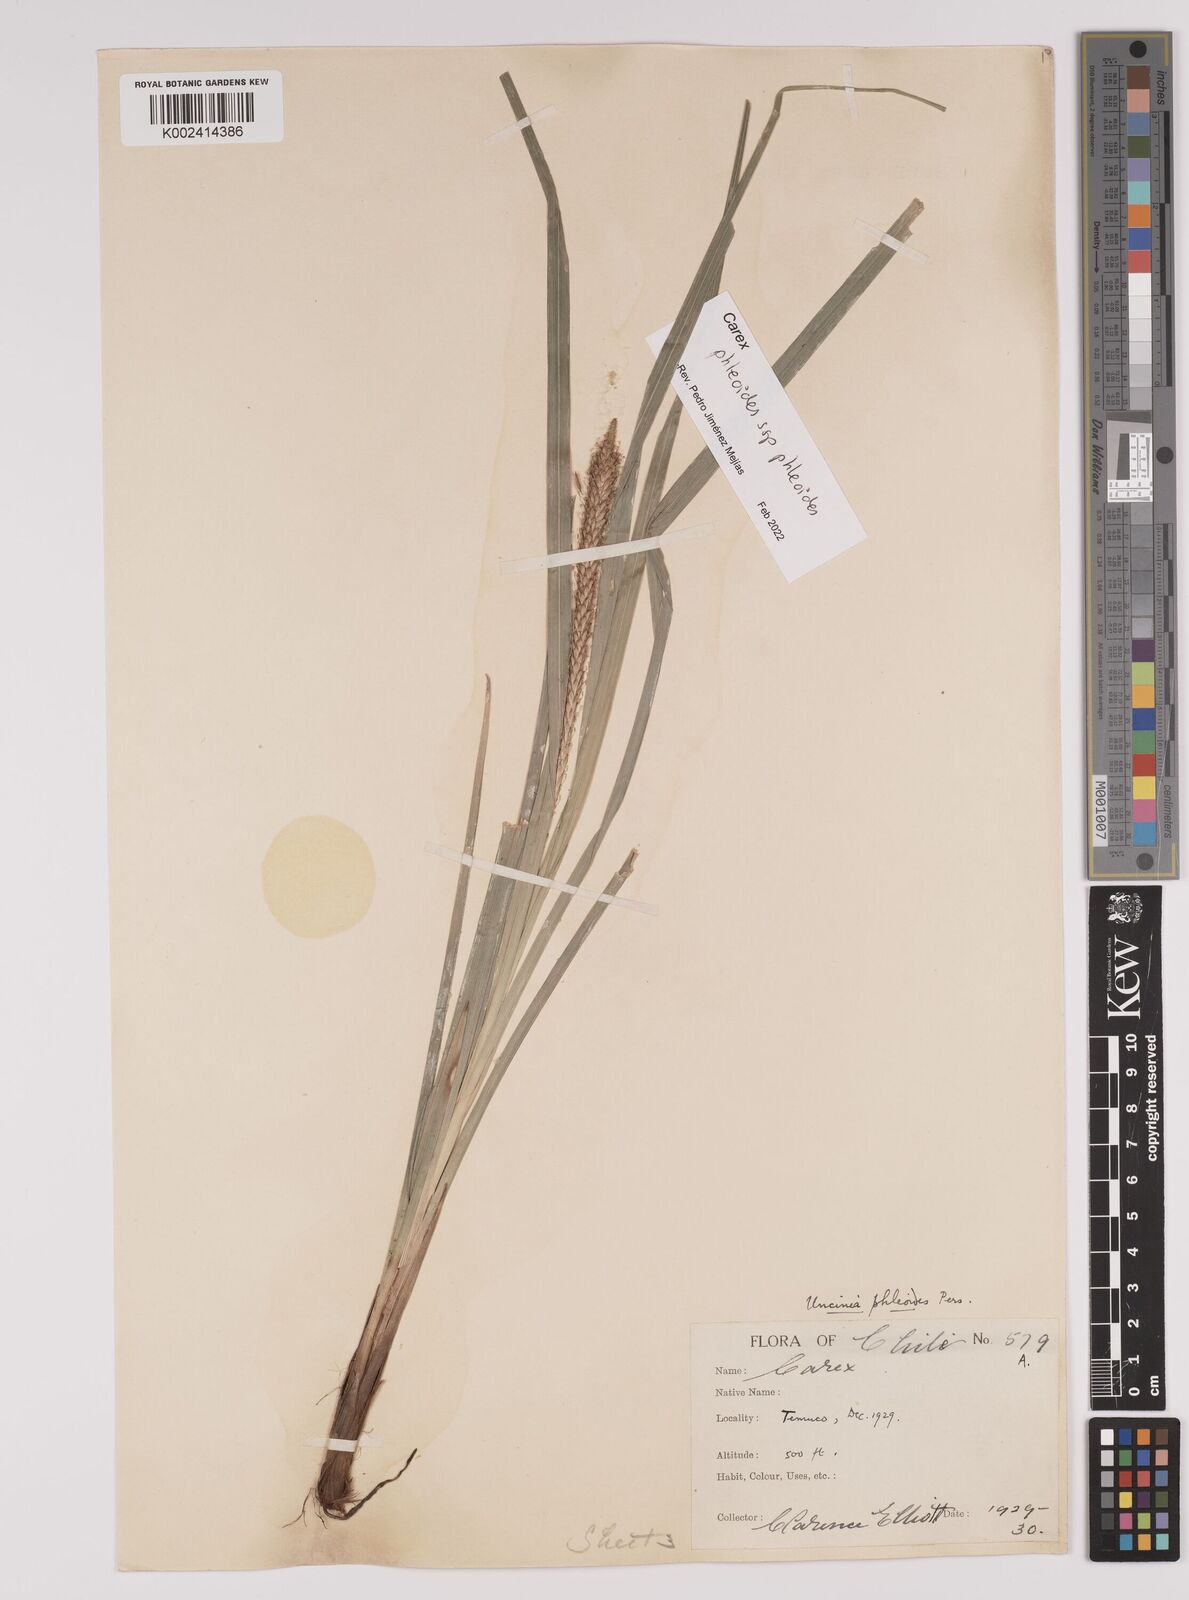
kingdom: Plantae
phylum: Tracheophyta
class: Liliopsida
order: Poales
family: Cyperaceae
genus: Carex
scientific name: Carex phleoides
